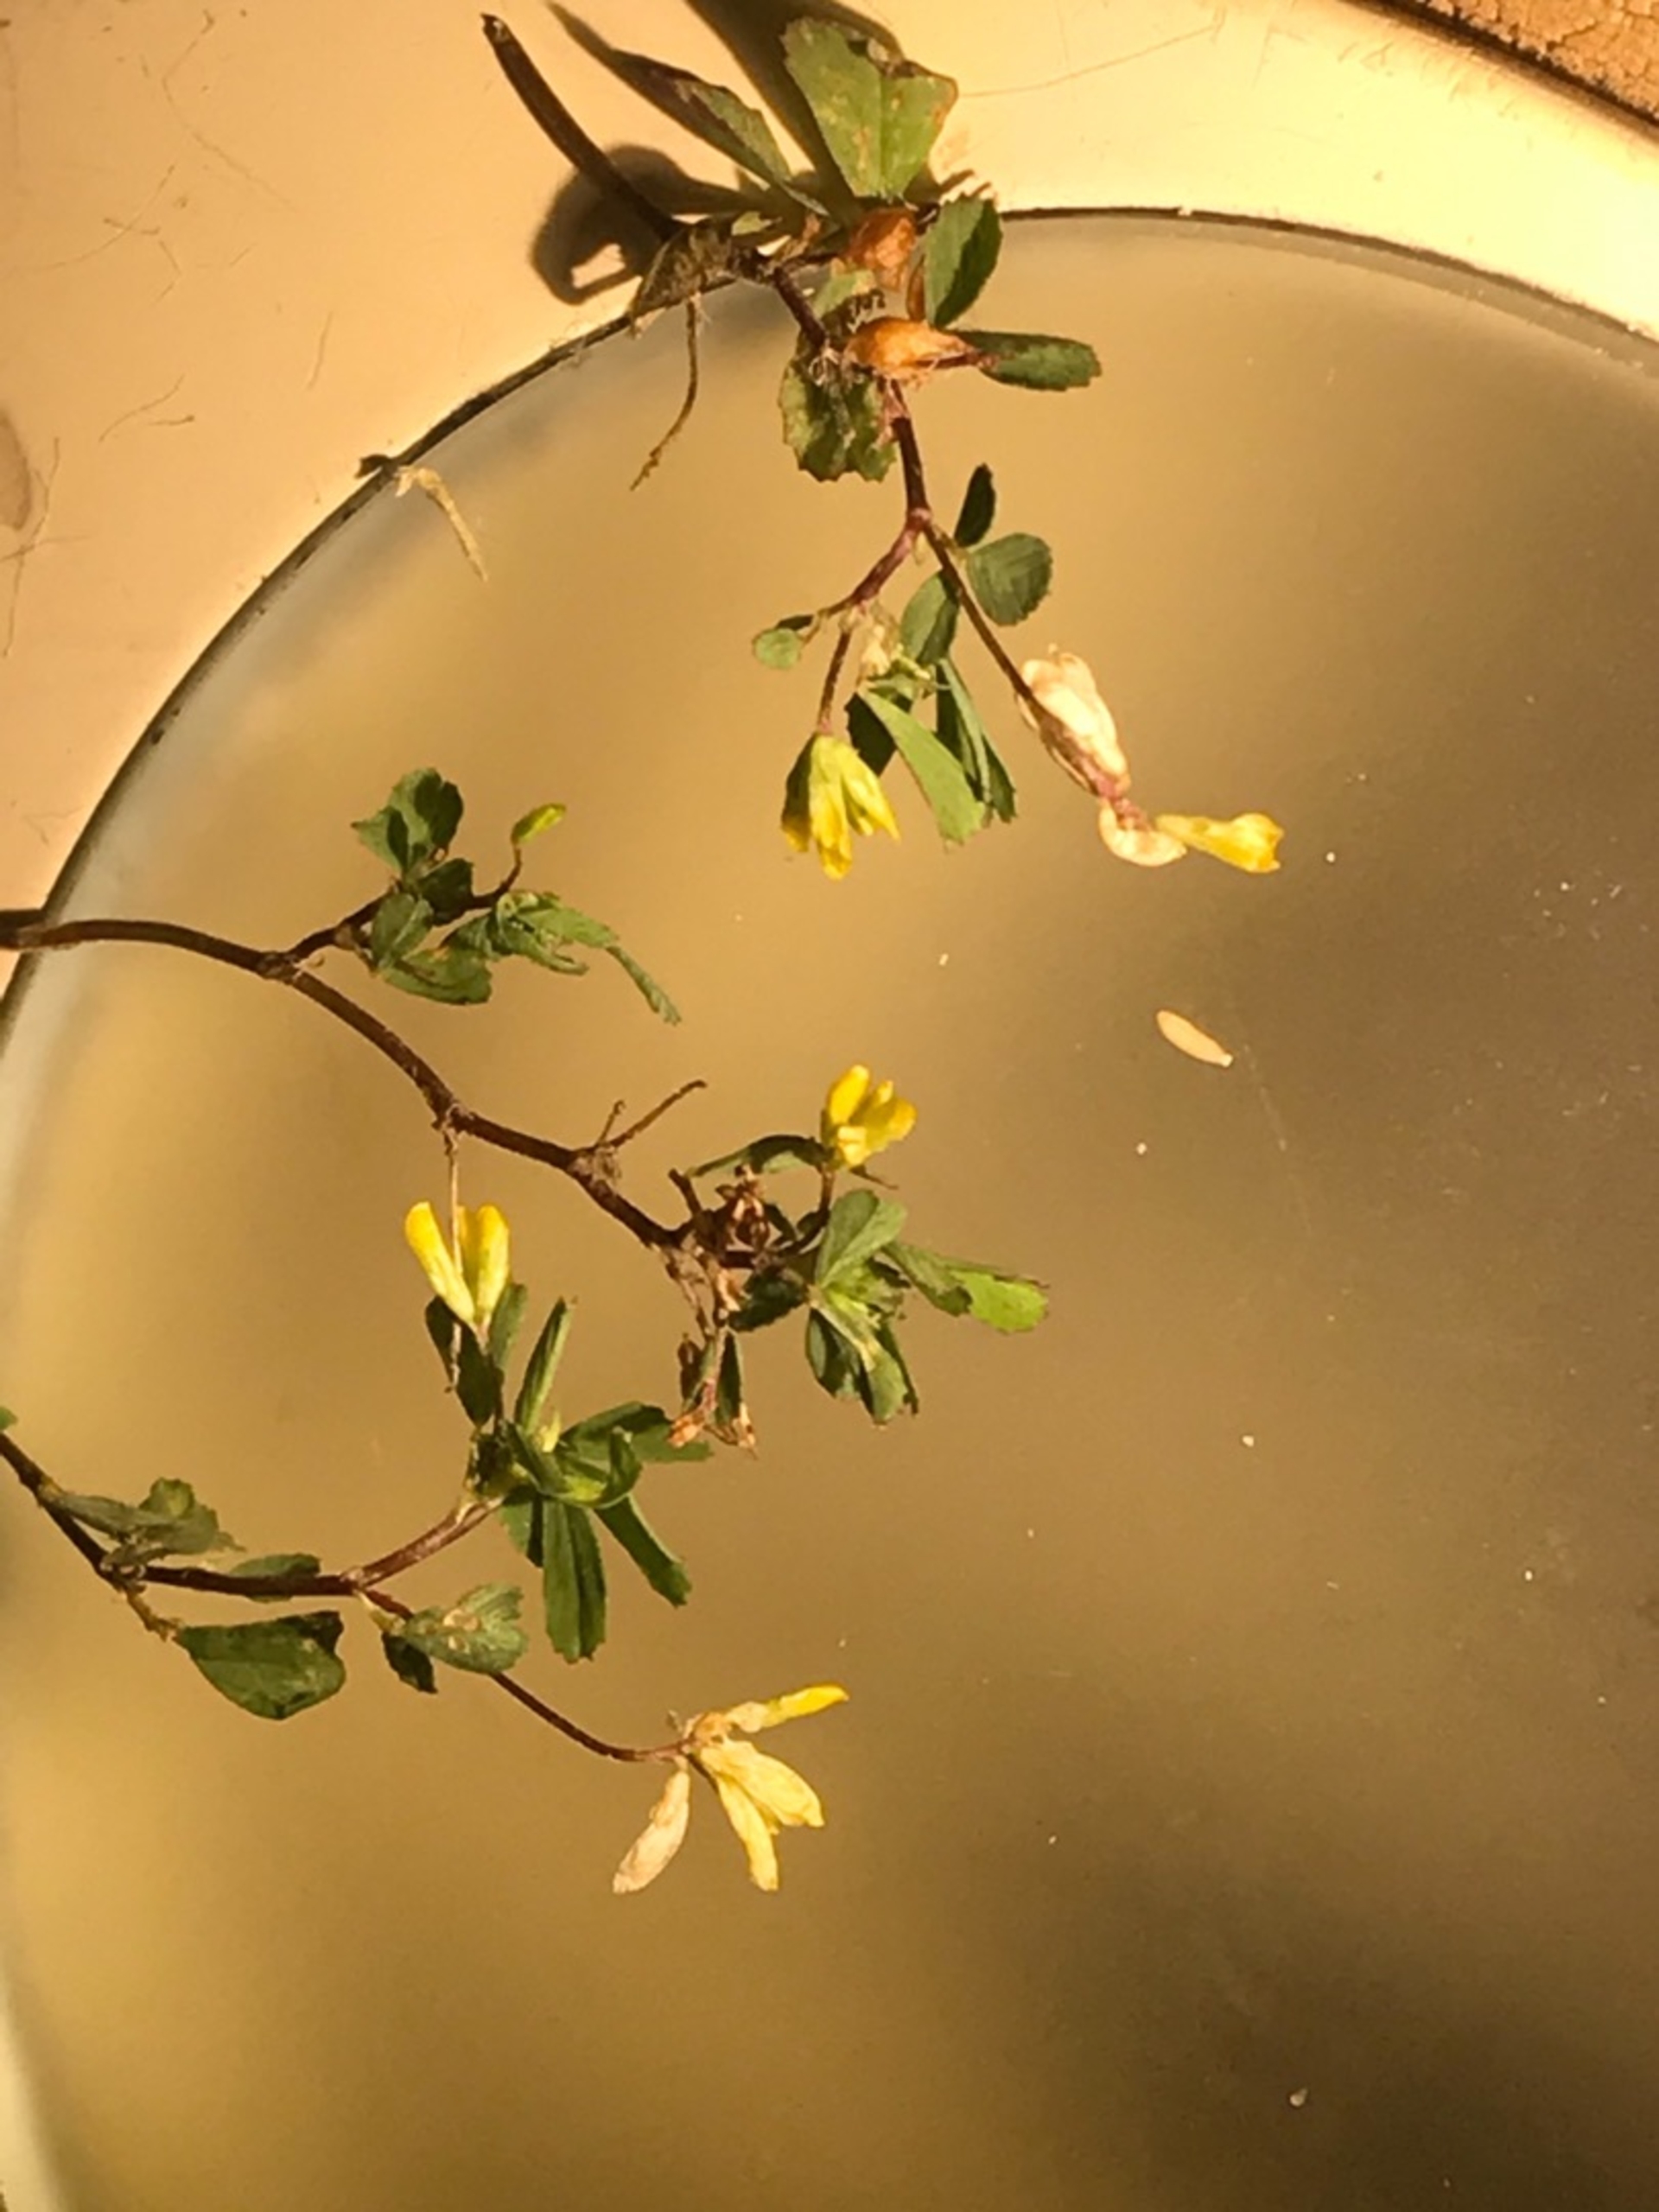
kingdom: Plantae
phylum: Tracheophyta
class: Magnoliopsida
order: Fabales
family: Fabaceae
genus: Trifolium
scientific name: Trifolium dubium
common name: Fin kløver
